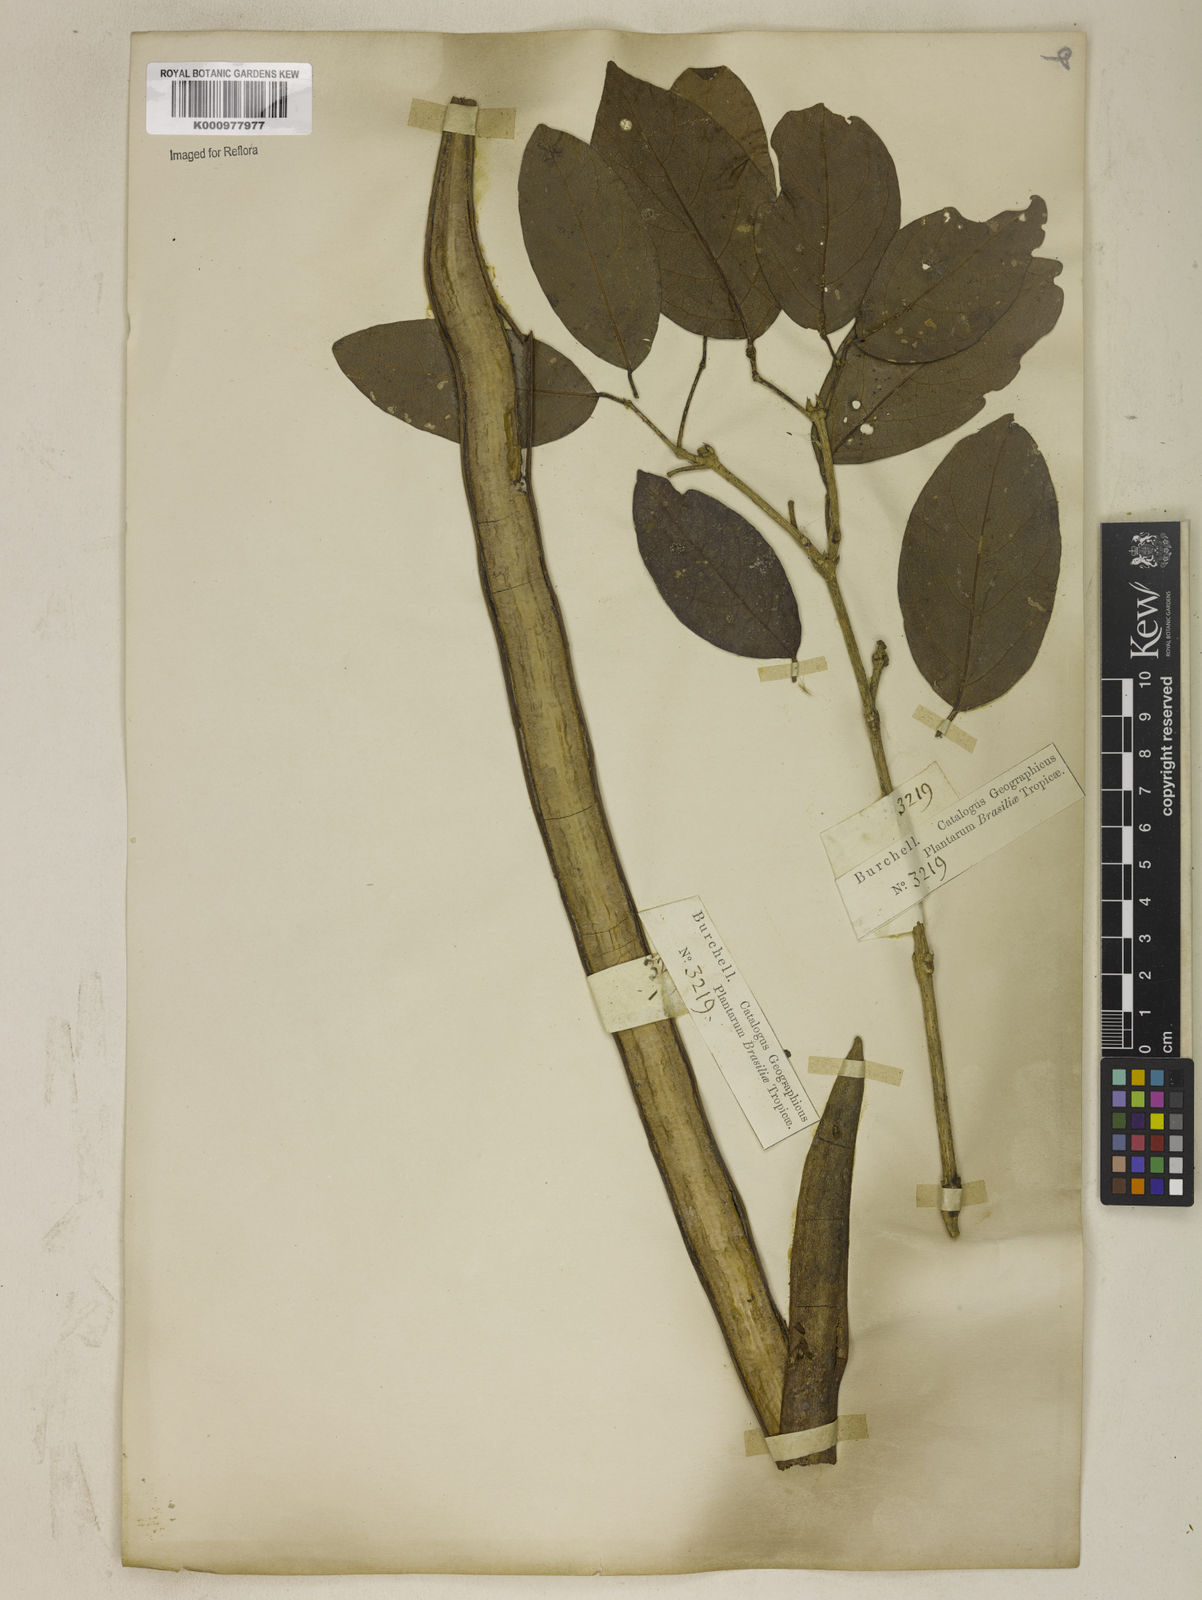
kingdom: Plantae
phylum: Tracheophyta
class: Magnoliopsida
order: Lamiales
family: Bignoniaceae
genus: Tanaecium
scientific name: Tanaecium pyramidatum
